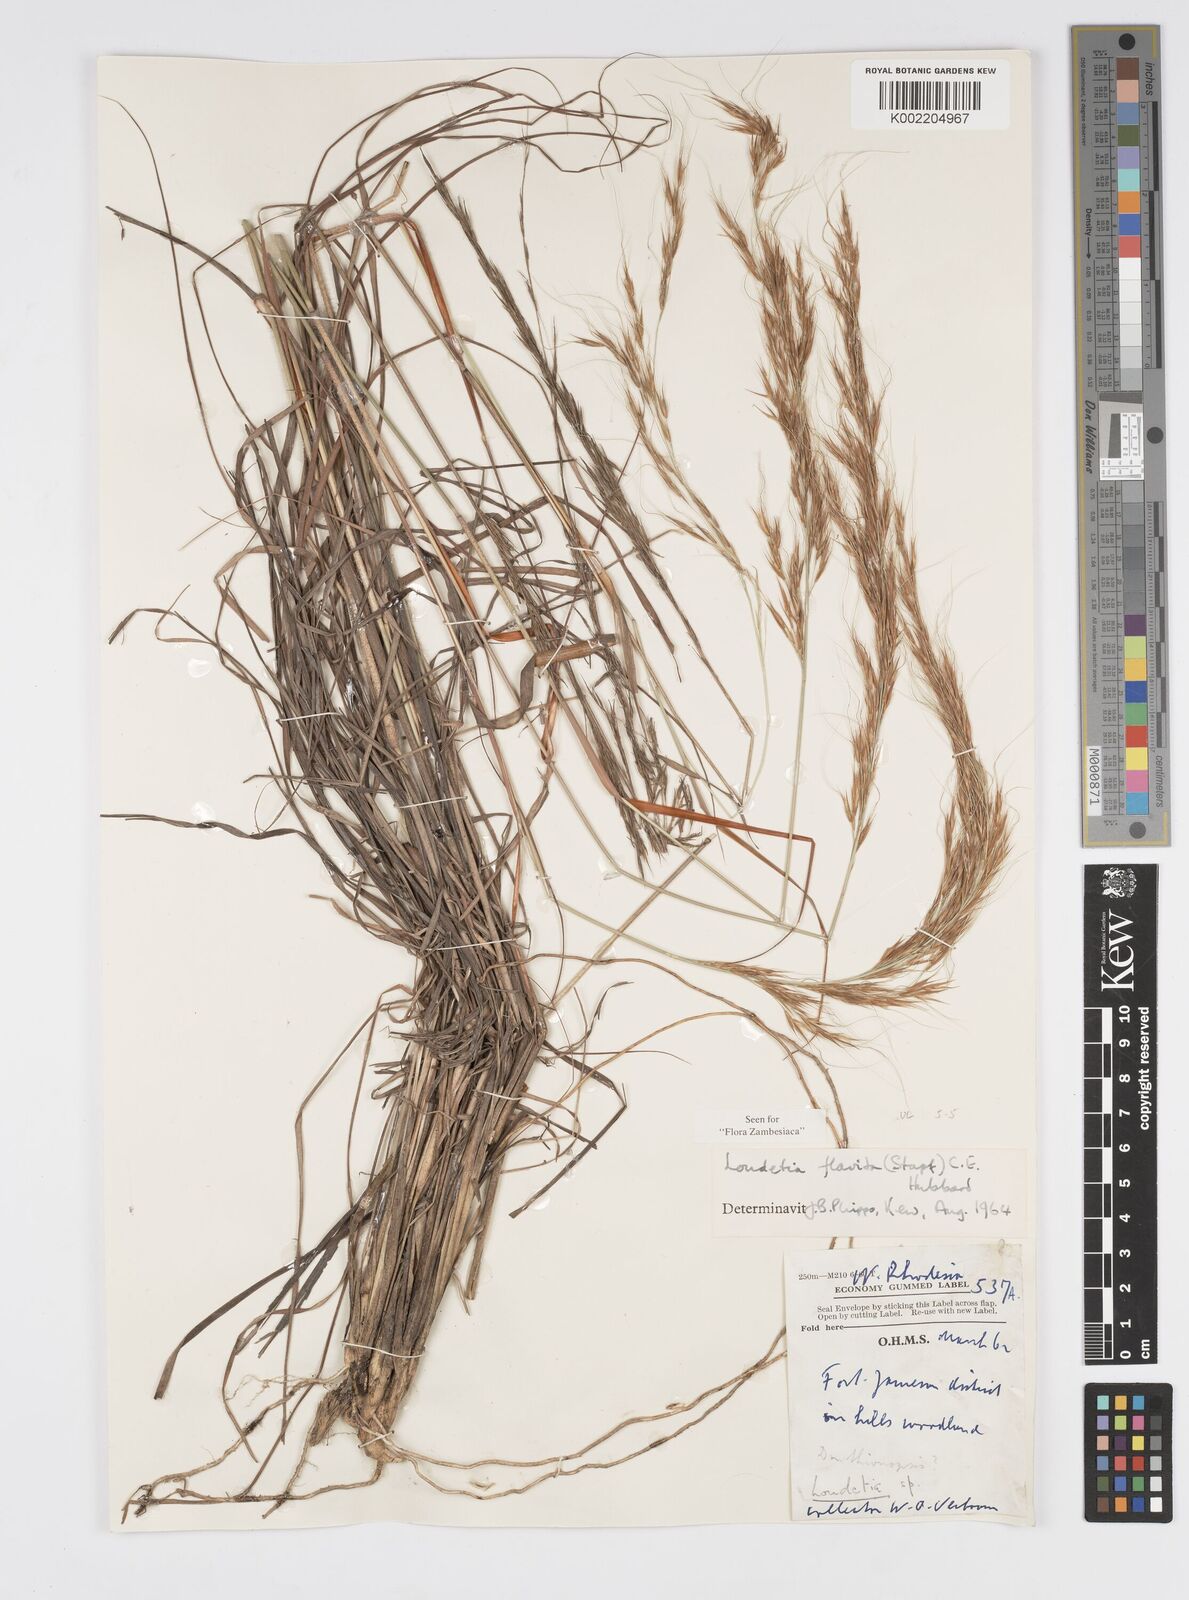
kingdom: Plantae
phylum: Tracheophyta
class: Liliopsida
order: Poales
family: Poaceae
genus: Loudetia
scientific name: Loudetia flavida
